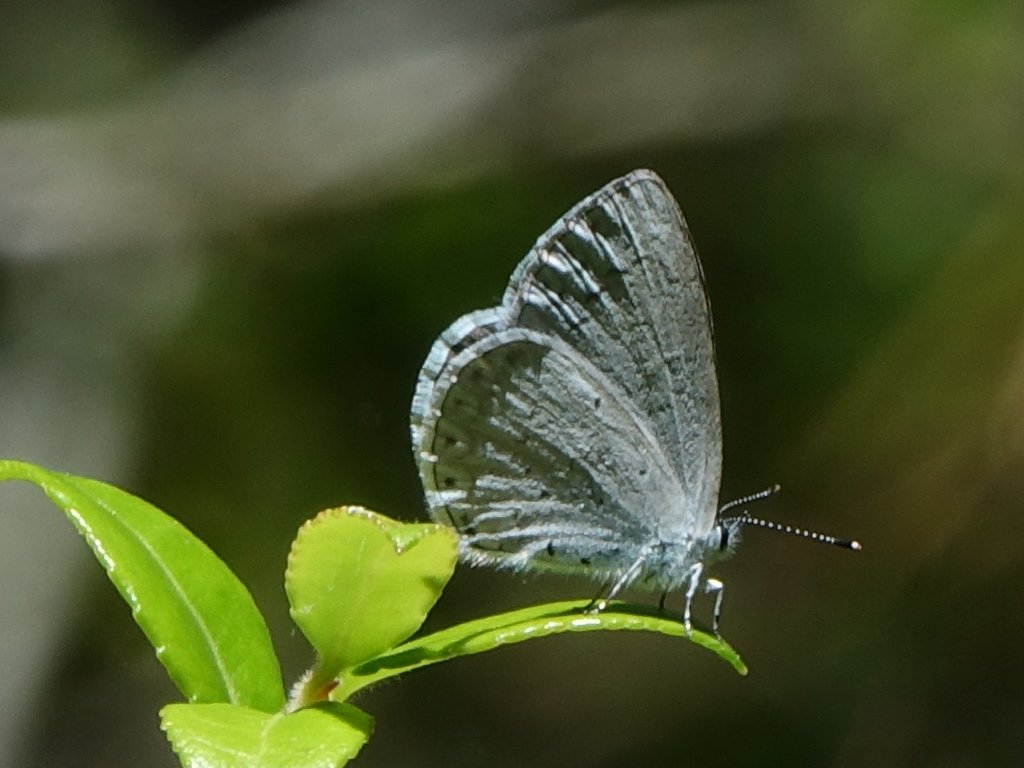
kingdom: Animalia
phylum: Arthropoda
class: Insecta
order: Lepidoptera
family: Lycaenidae
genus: Celastrina
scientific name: Celastrina ladon
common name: Spring Azure
